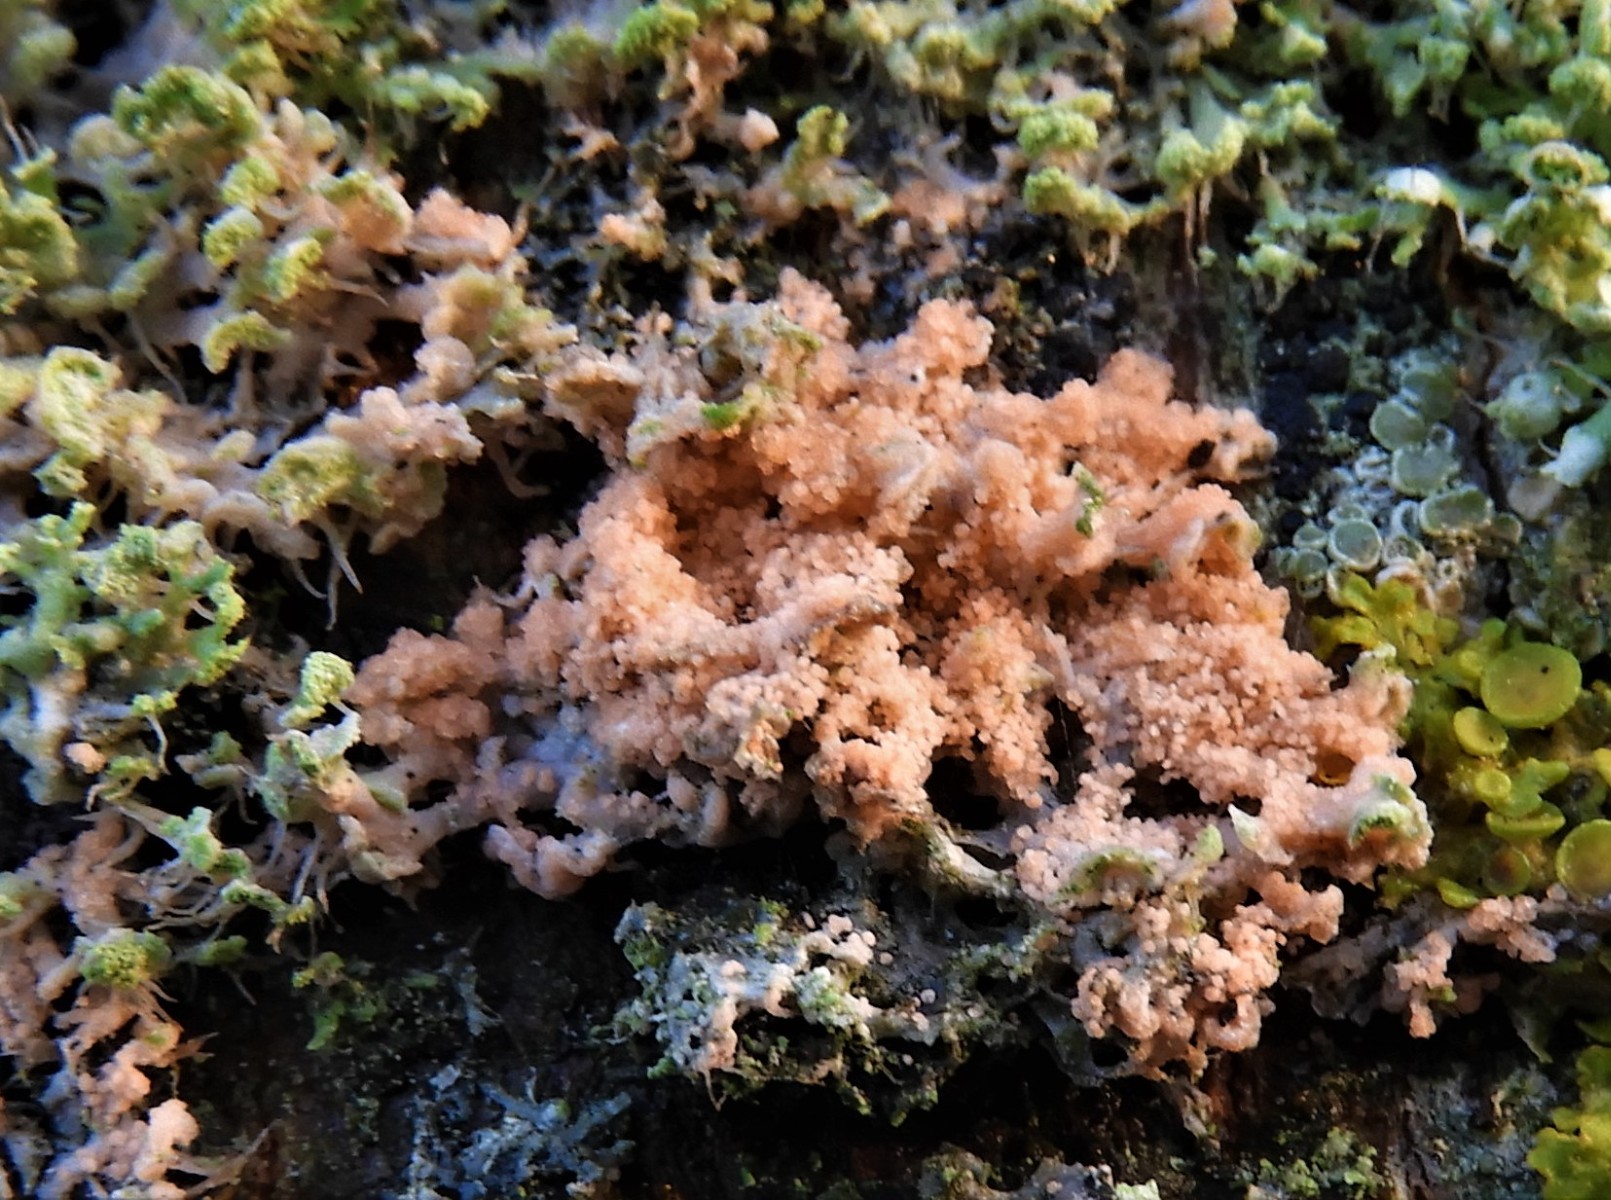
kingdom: Fungi
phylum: Basidiomycota
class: Agaricomycetes
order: Corticiales
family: Corticiaceae
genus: Erythricium
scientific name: Erythricium aurantiacum
